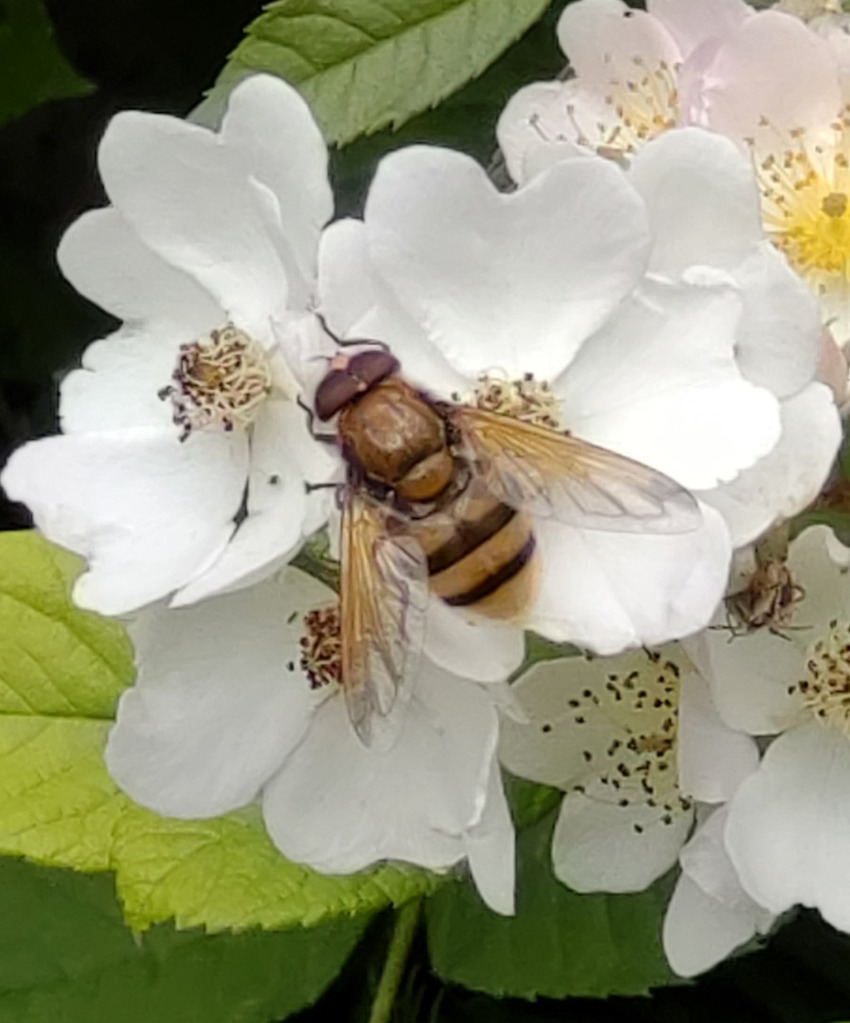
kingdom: Animalia
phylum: Arthropoda
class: Insecta
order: Diptera
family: Syrphidae
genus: Volucella
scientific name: Volucella zonaria
